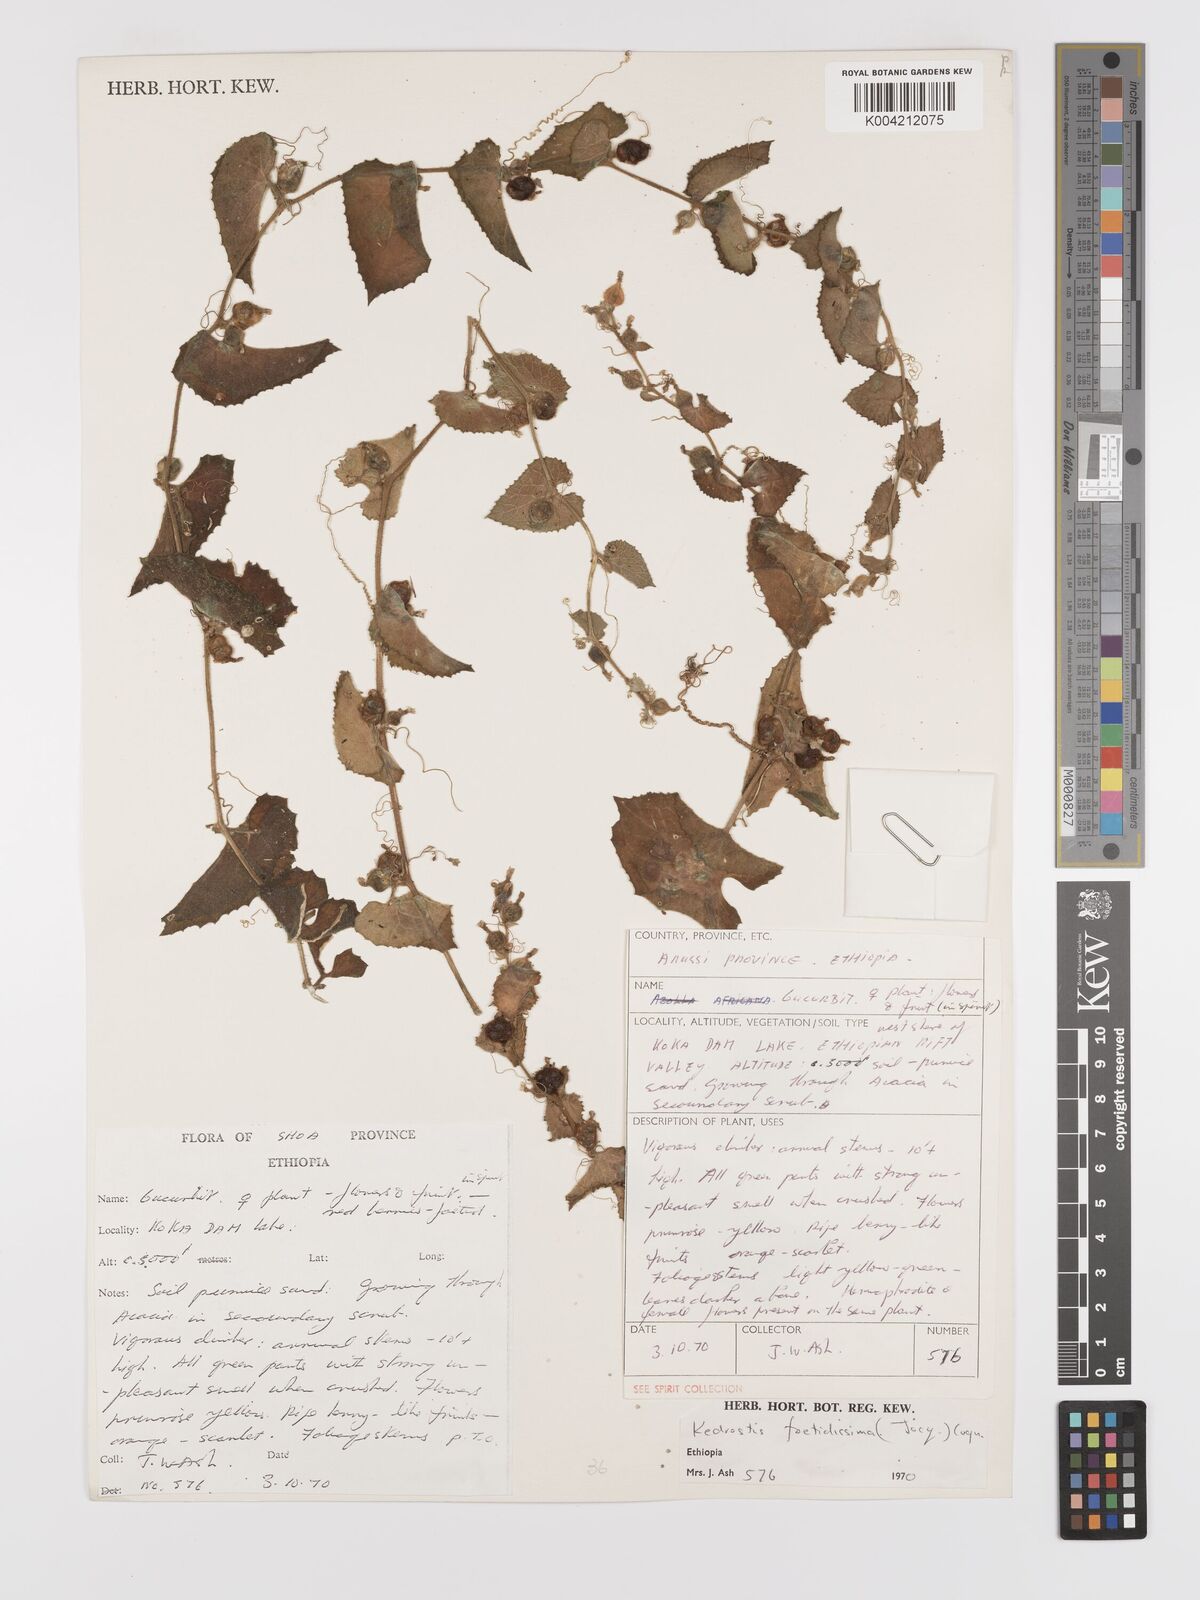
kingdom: Plantae
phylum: Tracheophyta
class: Magnoliopsida
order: Cucurbitales
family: Cucurbitaceae
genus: Kedrostis
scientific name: Kedrostis foetidissima
